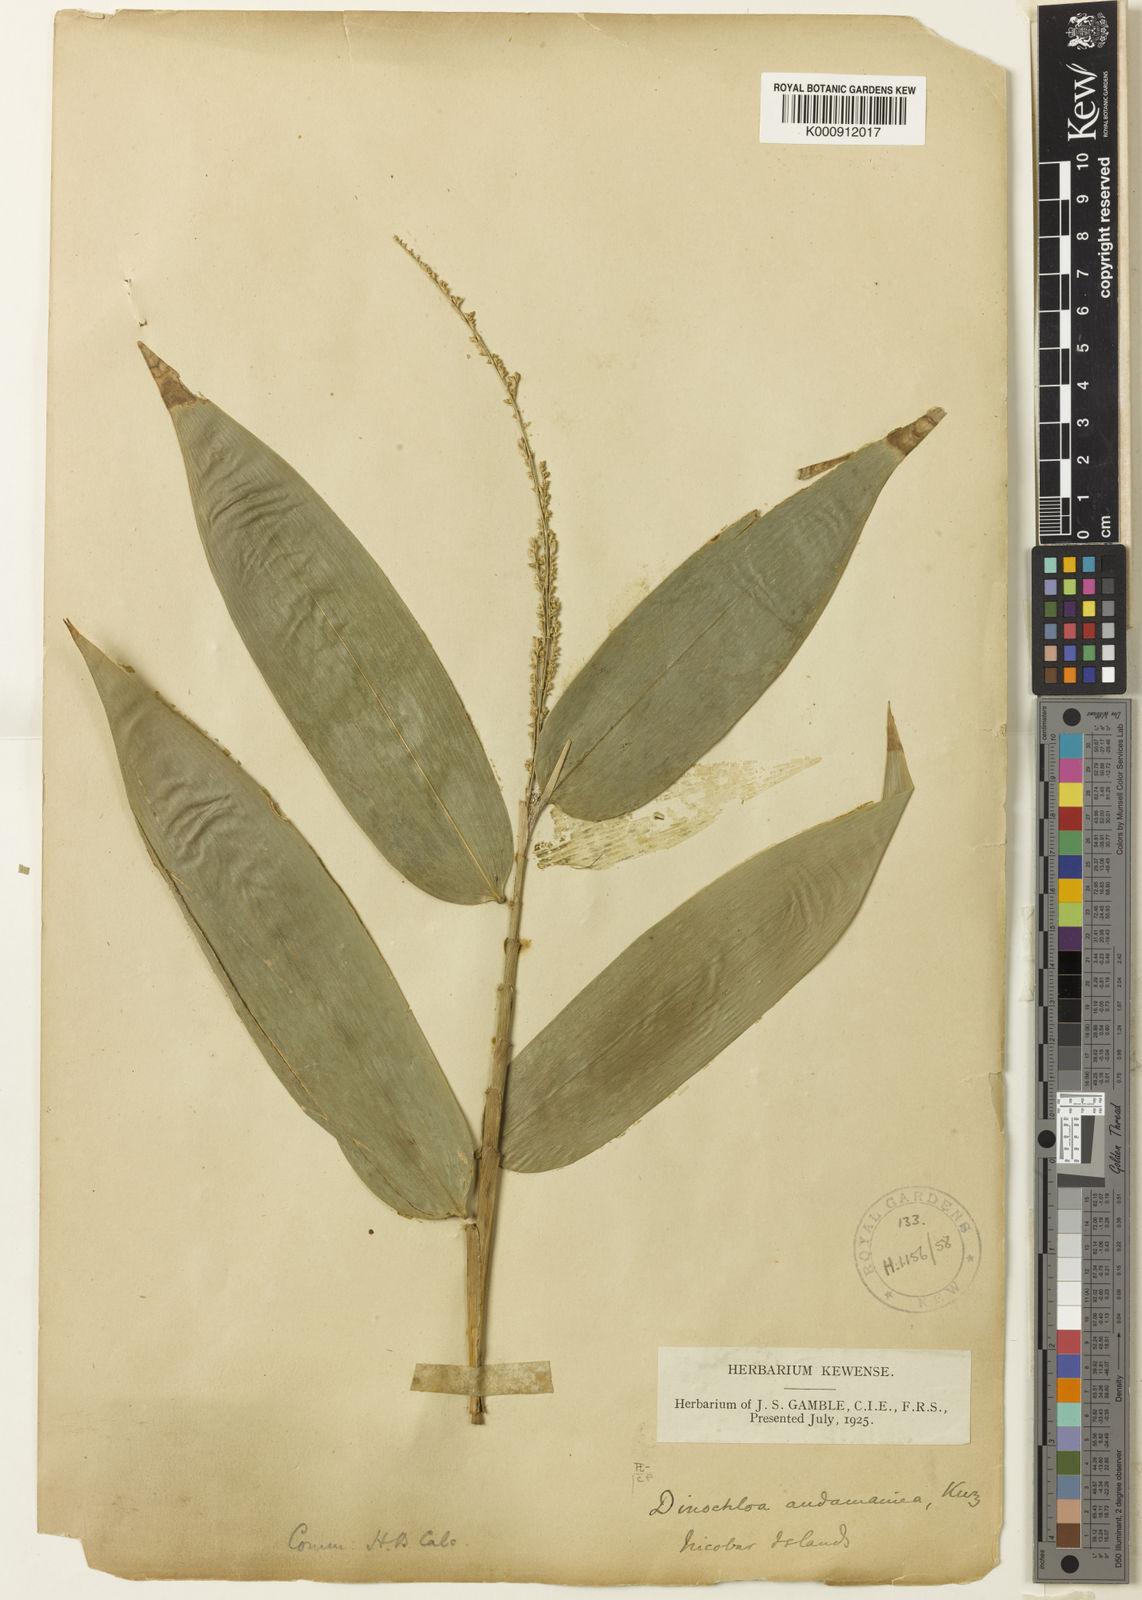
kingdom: Plantae
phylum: Tracheophyta
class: Liliopsida
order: Poales
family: Poaceae
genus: Dinochloa
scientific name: Dinochloa andamanica
